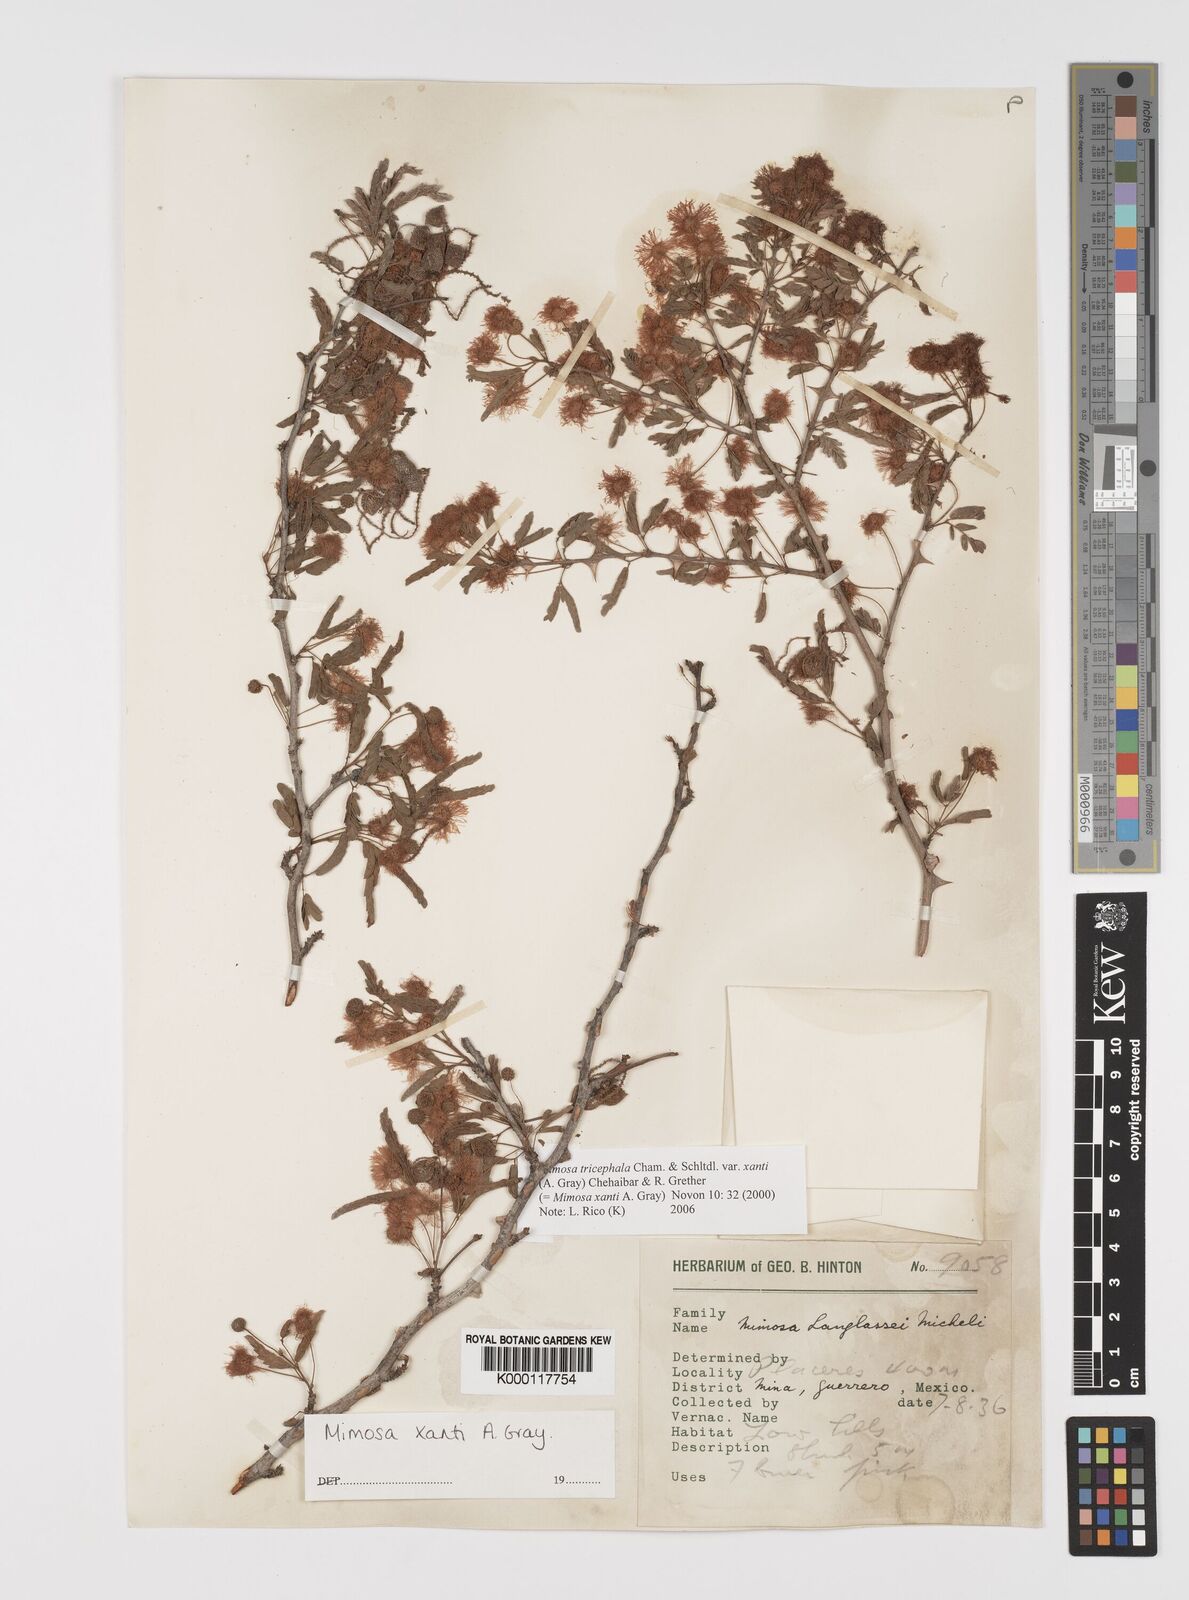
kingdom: Plantae
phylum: Tracheophyta
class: Magnoliopsida
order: Fabales
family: Fabaceae
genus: Mimosa
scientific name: Mimosa tricephala
